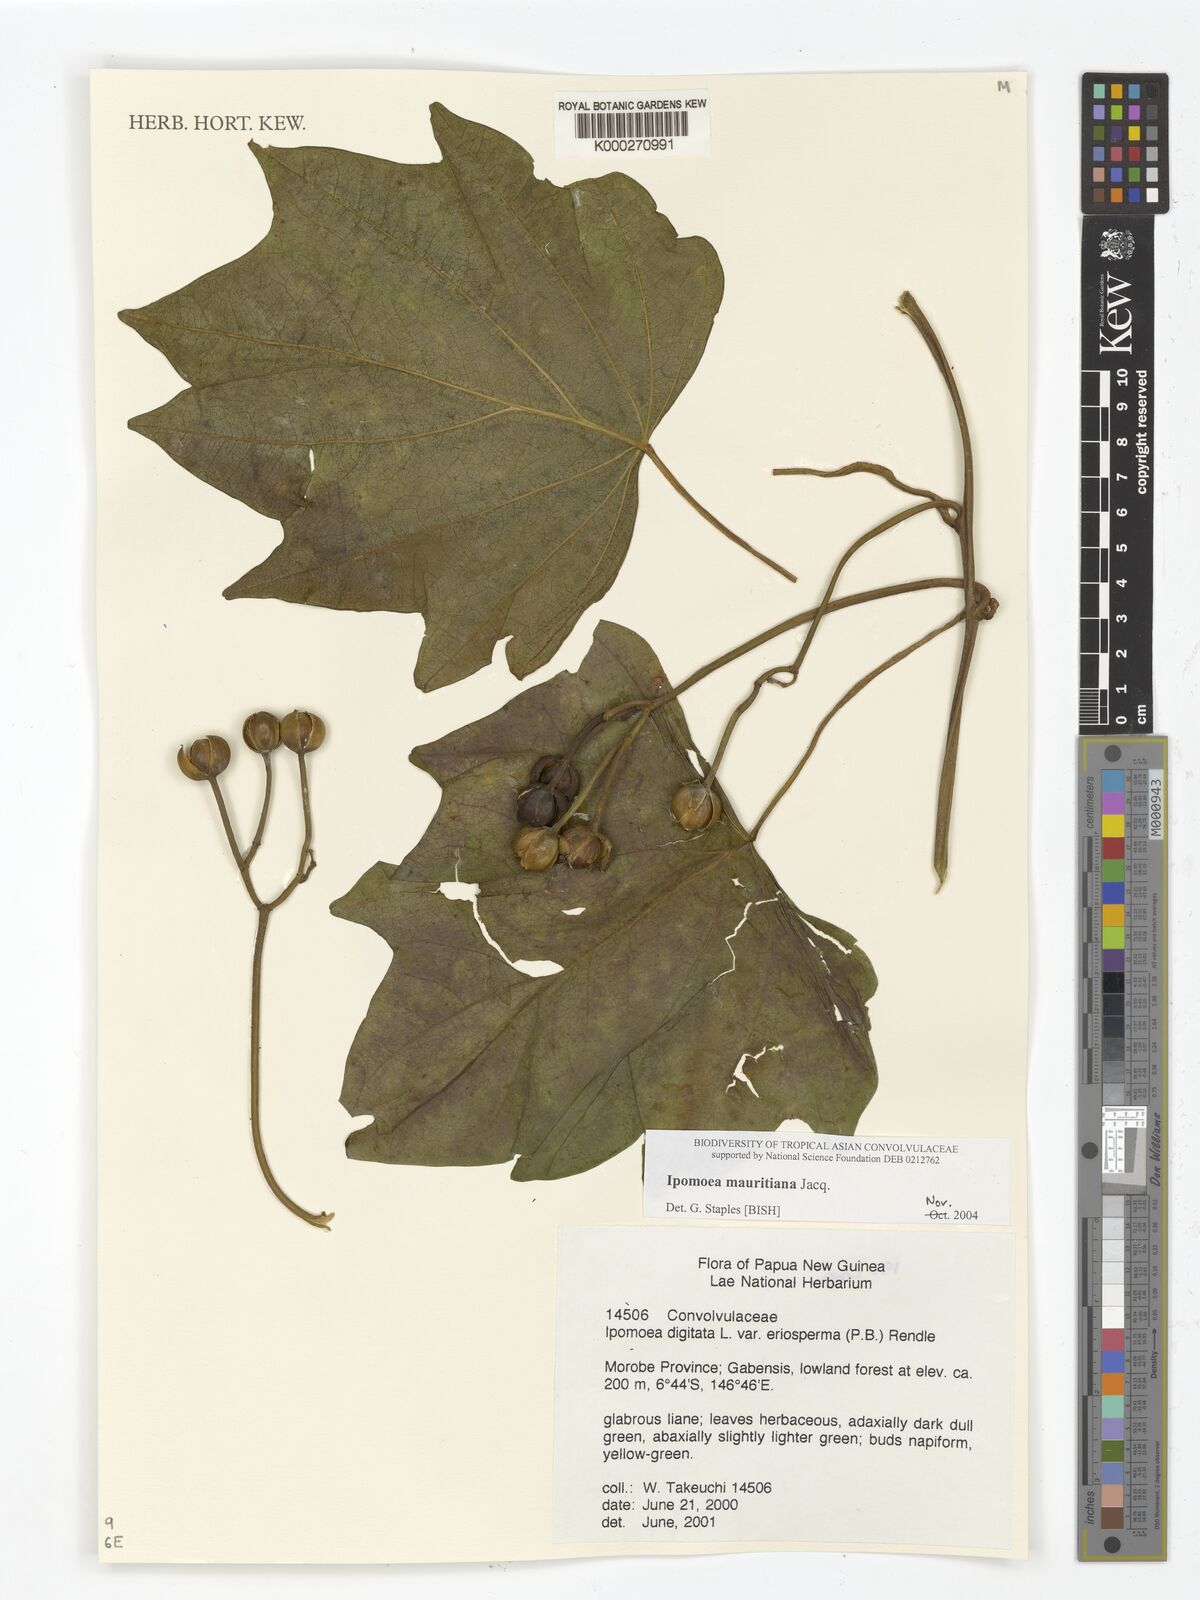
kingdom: Plantae
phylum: Tracheophyta
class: Magnoliopsida
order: Solanales
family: Convolvulaceae
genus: Ipomoea
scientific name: Ipomoea mauritiana
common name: Mauritanian convolvulus
